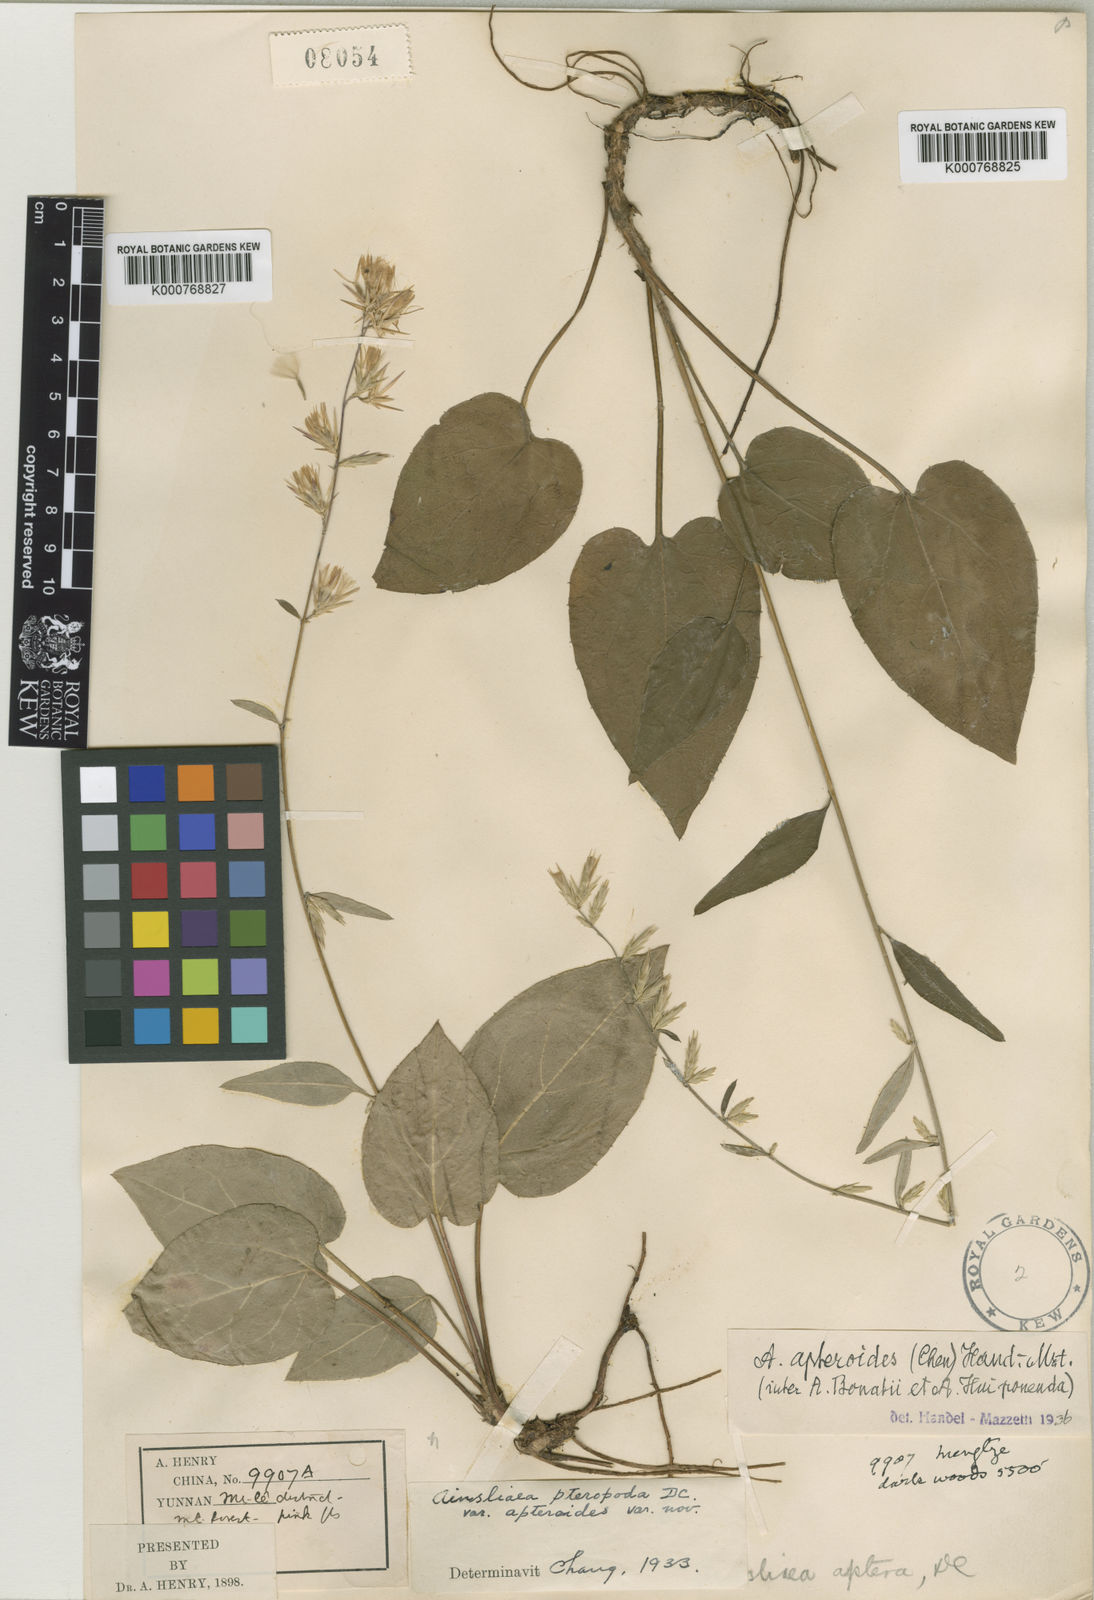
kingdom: Plantae
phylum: Tracheophyta
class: Magnoliopsida
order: Asterales
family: Asteraceae
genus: Ainsliaea
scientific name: Ainsliaea
